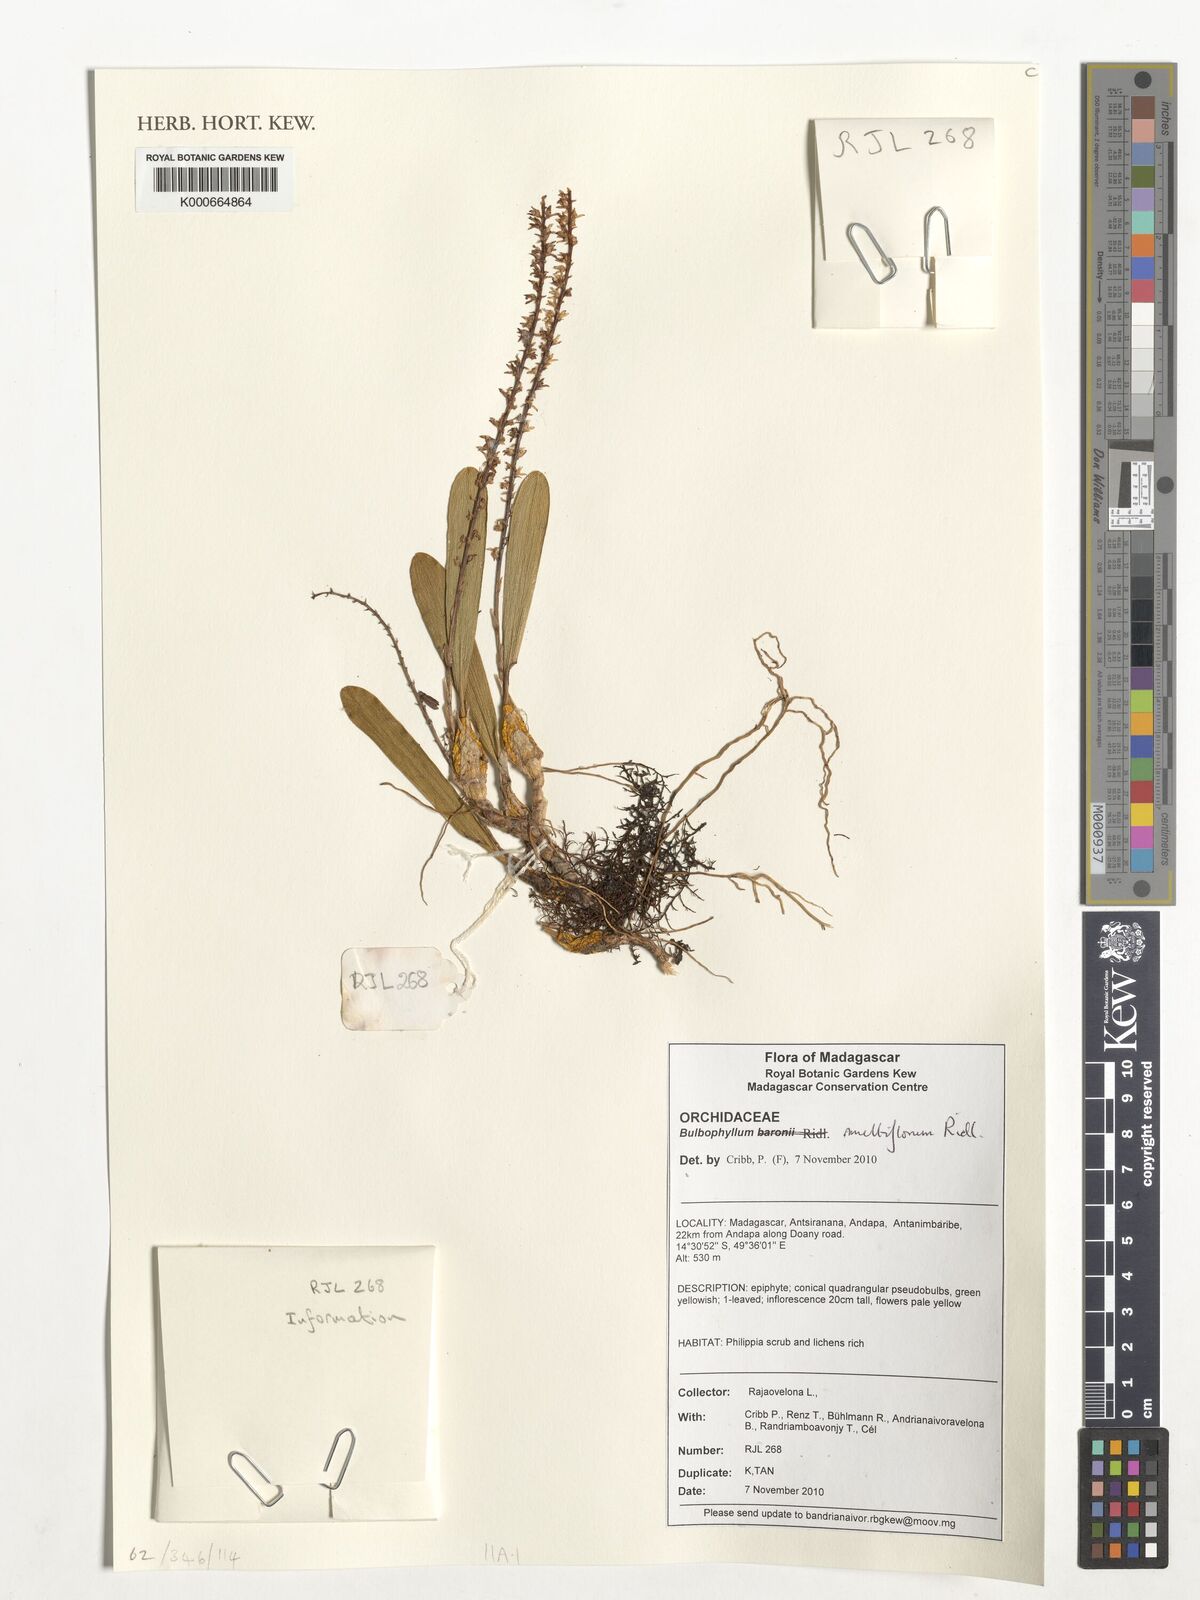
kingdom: Plantae
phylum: Tracheophyta
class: Liliopsida
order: Asparagales
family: Orchidaceae
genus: Bulbophyllum
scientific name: Bulbophyllum multiflorum
